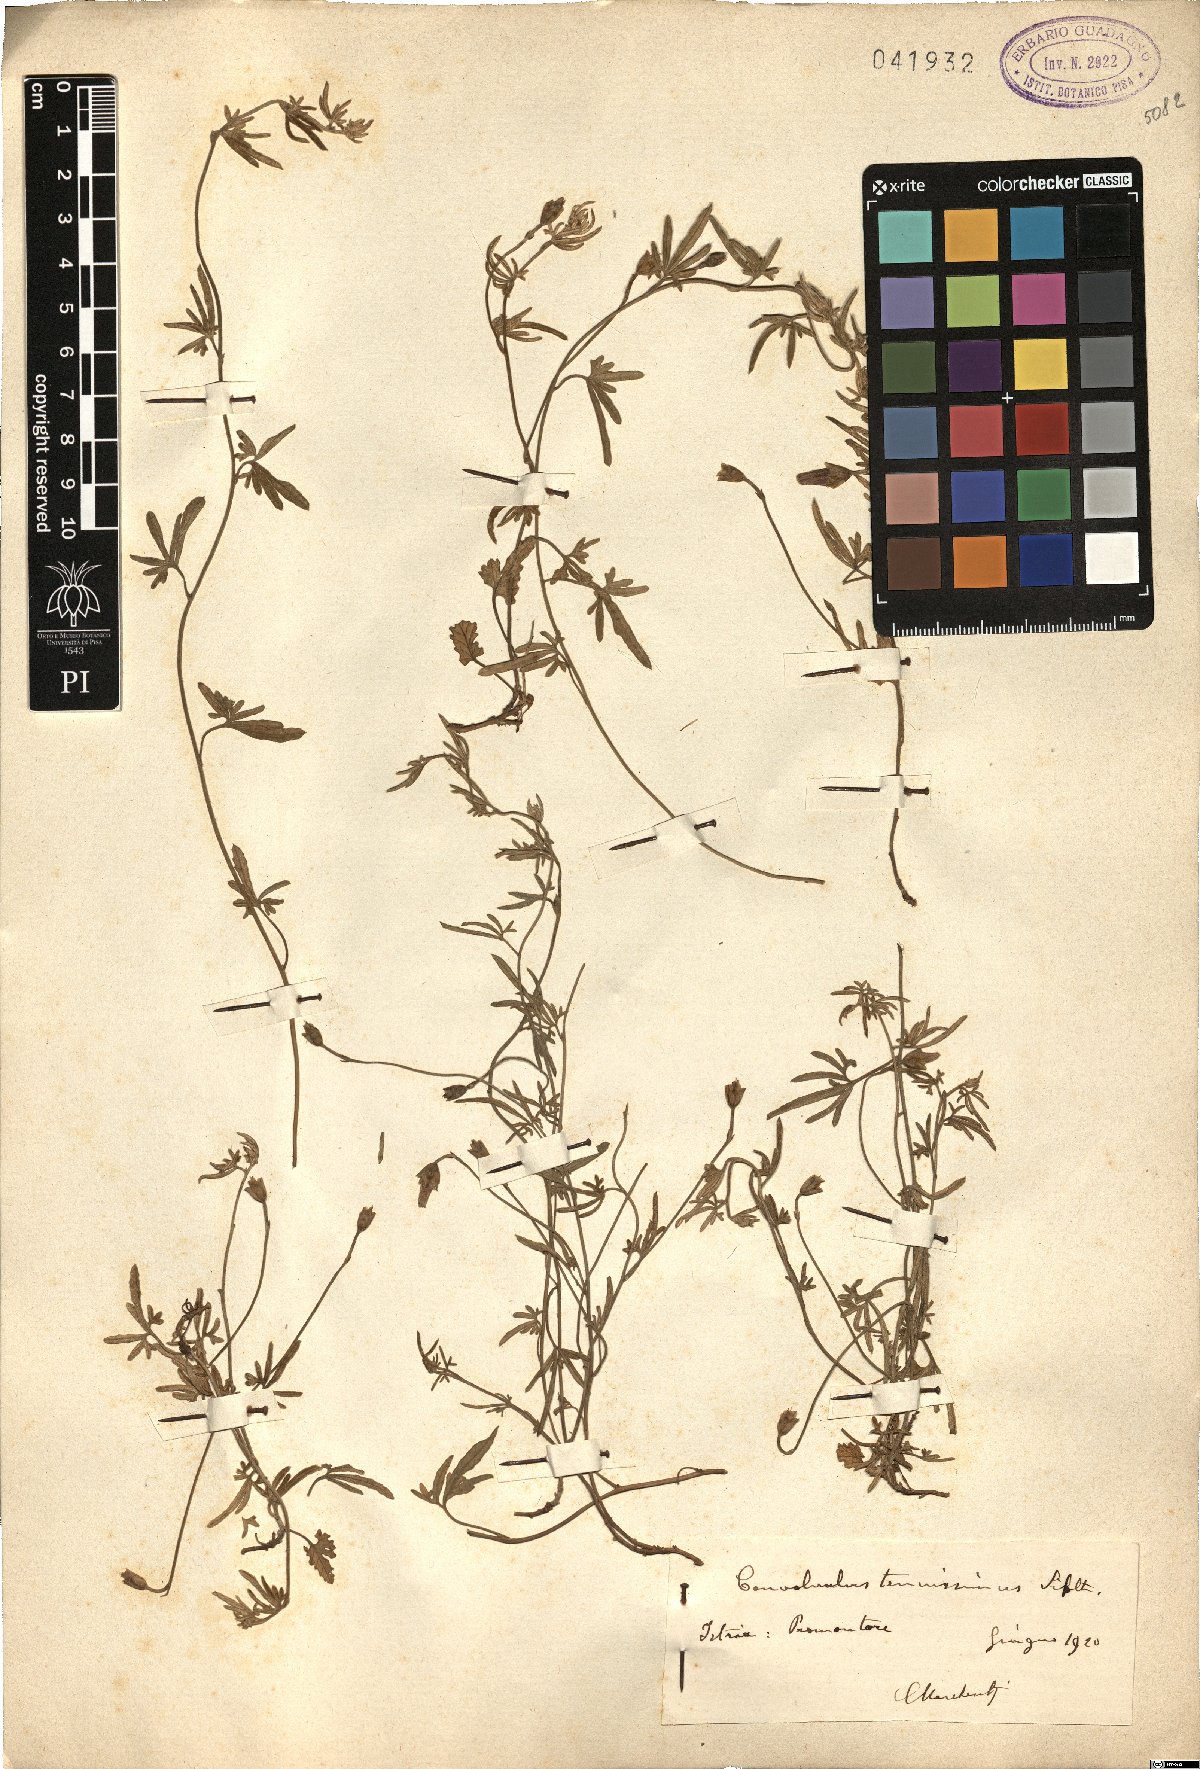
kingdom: Plantae
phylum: Tracheophyta
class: Magnoliopsida
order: Solanales
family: Convolvulaceae
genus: Convolvulus
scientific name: Convolvulus elegantissimus
